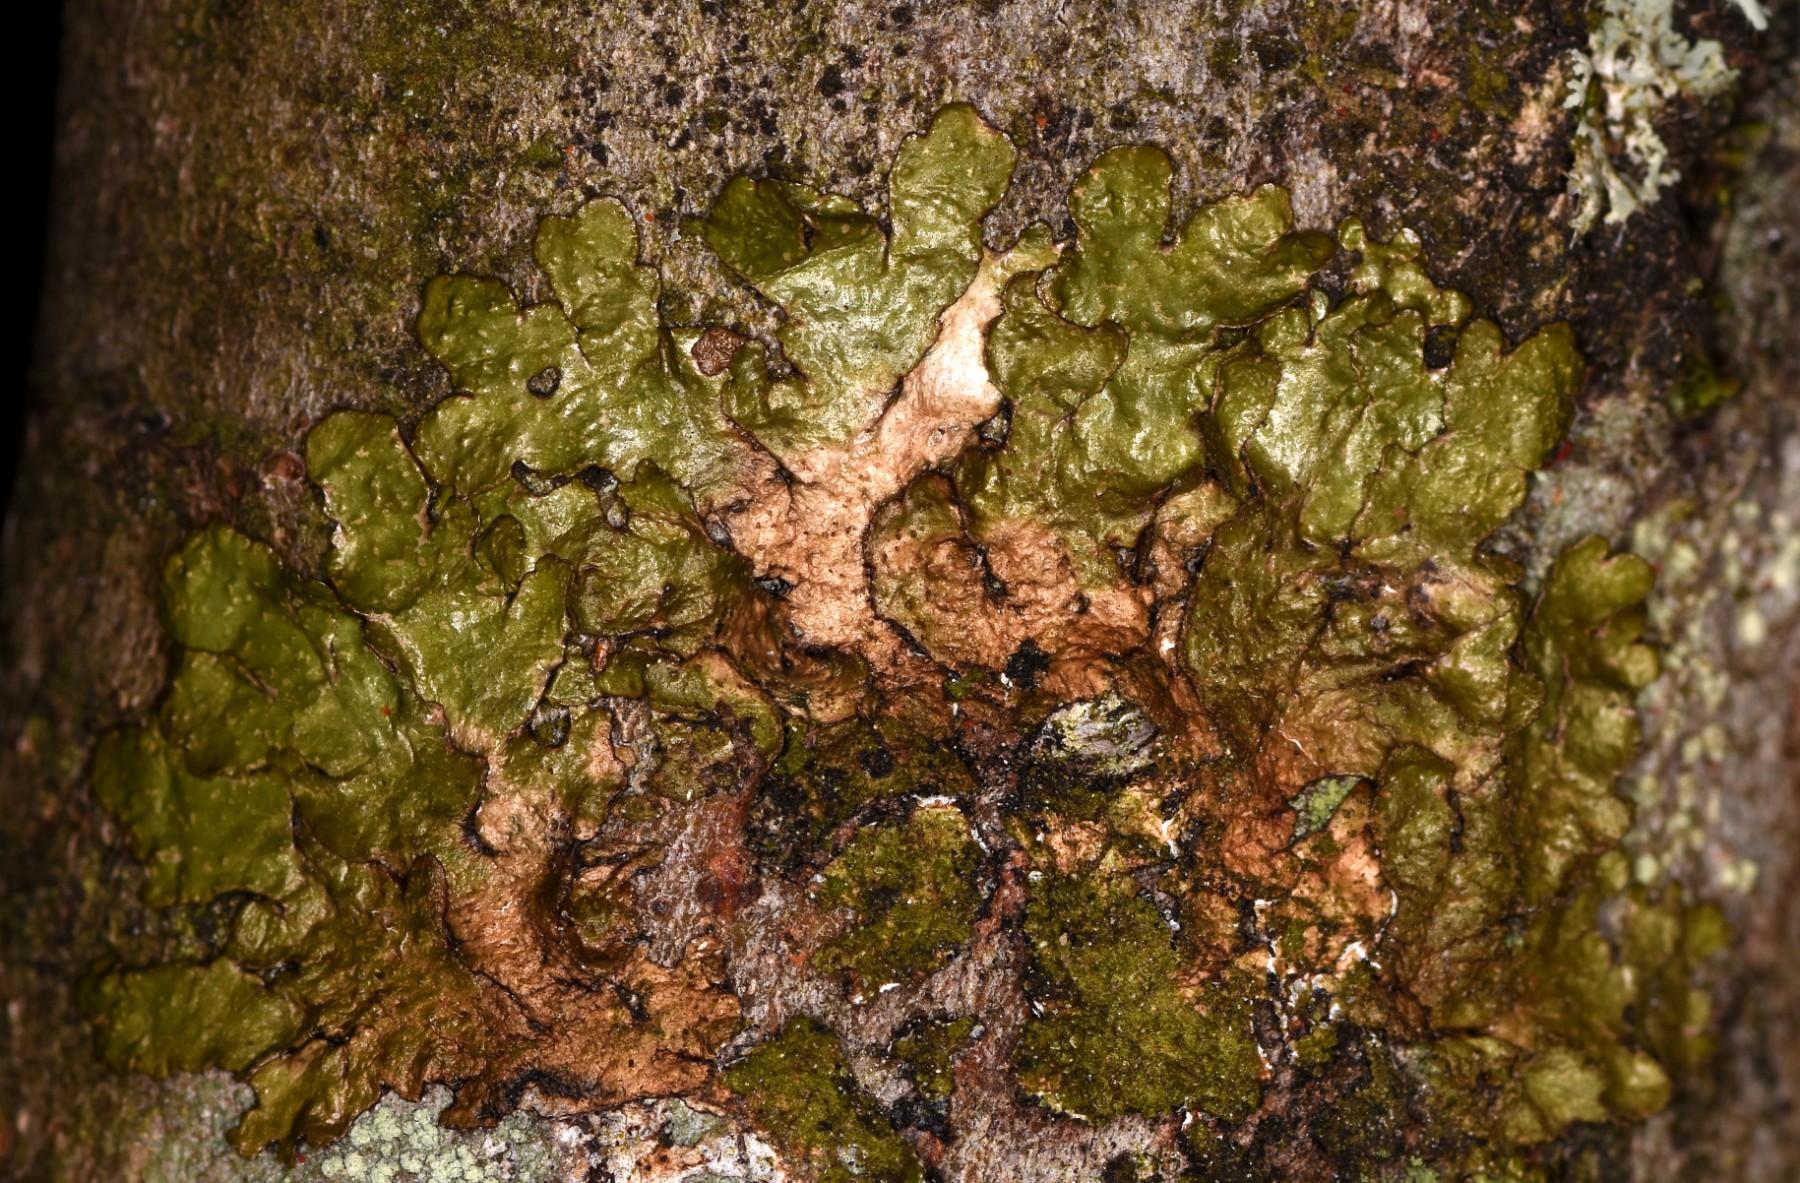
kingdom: Fungi
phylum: Ascomycota
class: Lecanoromycetes
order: Lecanorales
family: Parmeliaceae
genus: Melanelixia
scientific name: Melanelixia glabratula
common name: glinsende skållav
